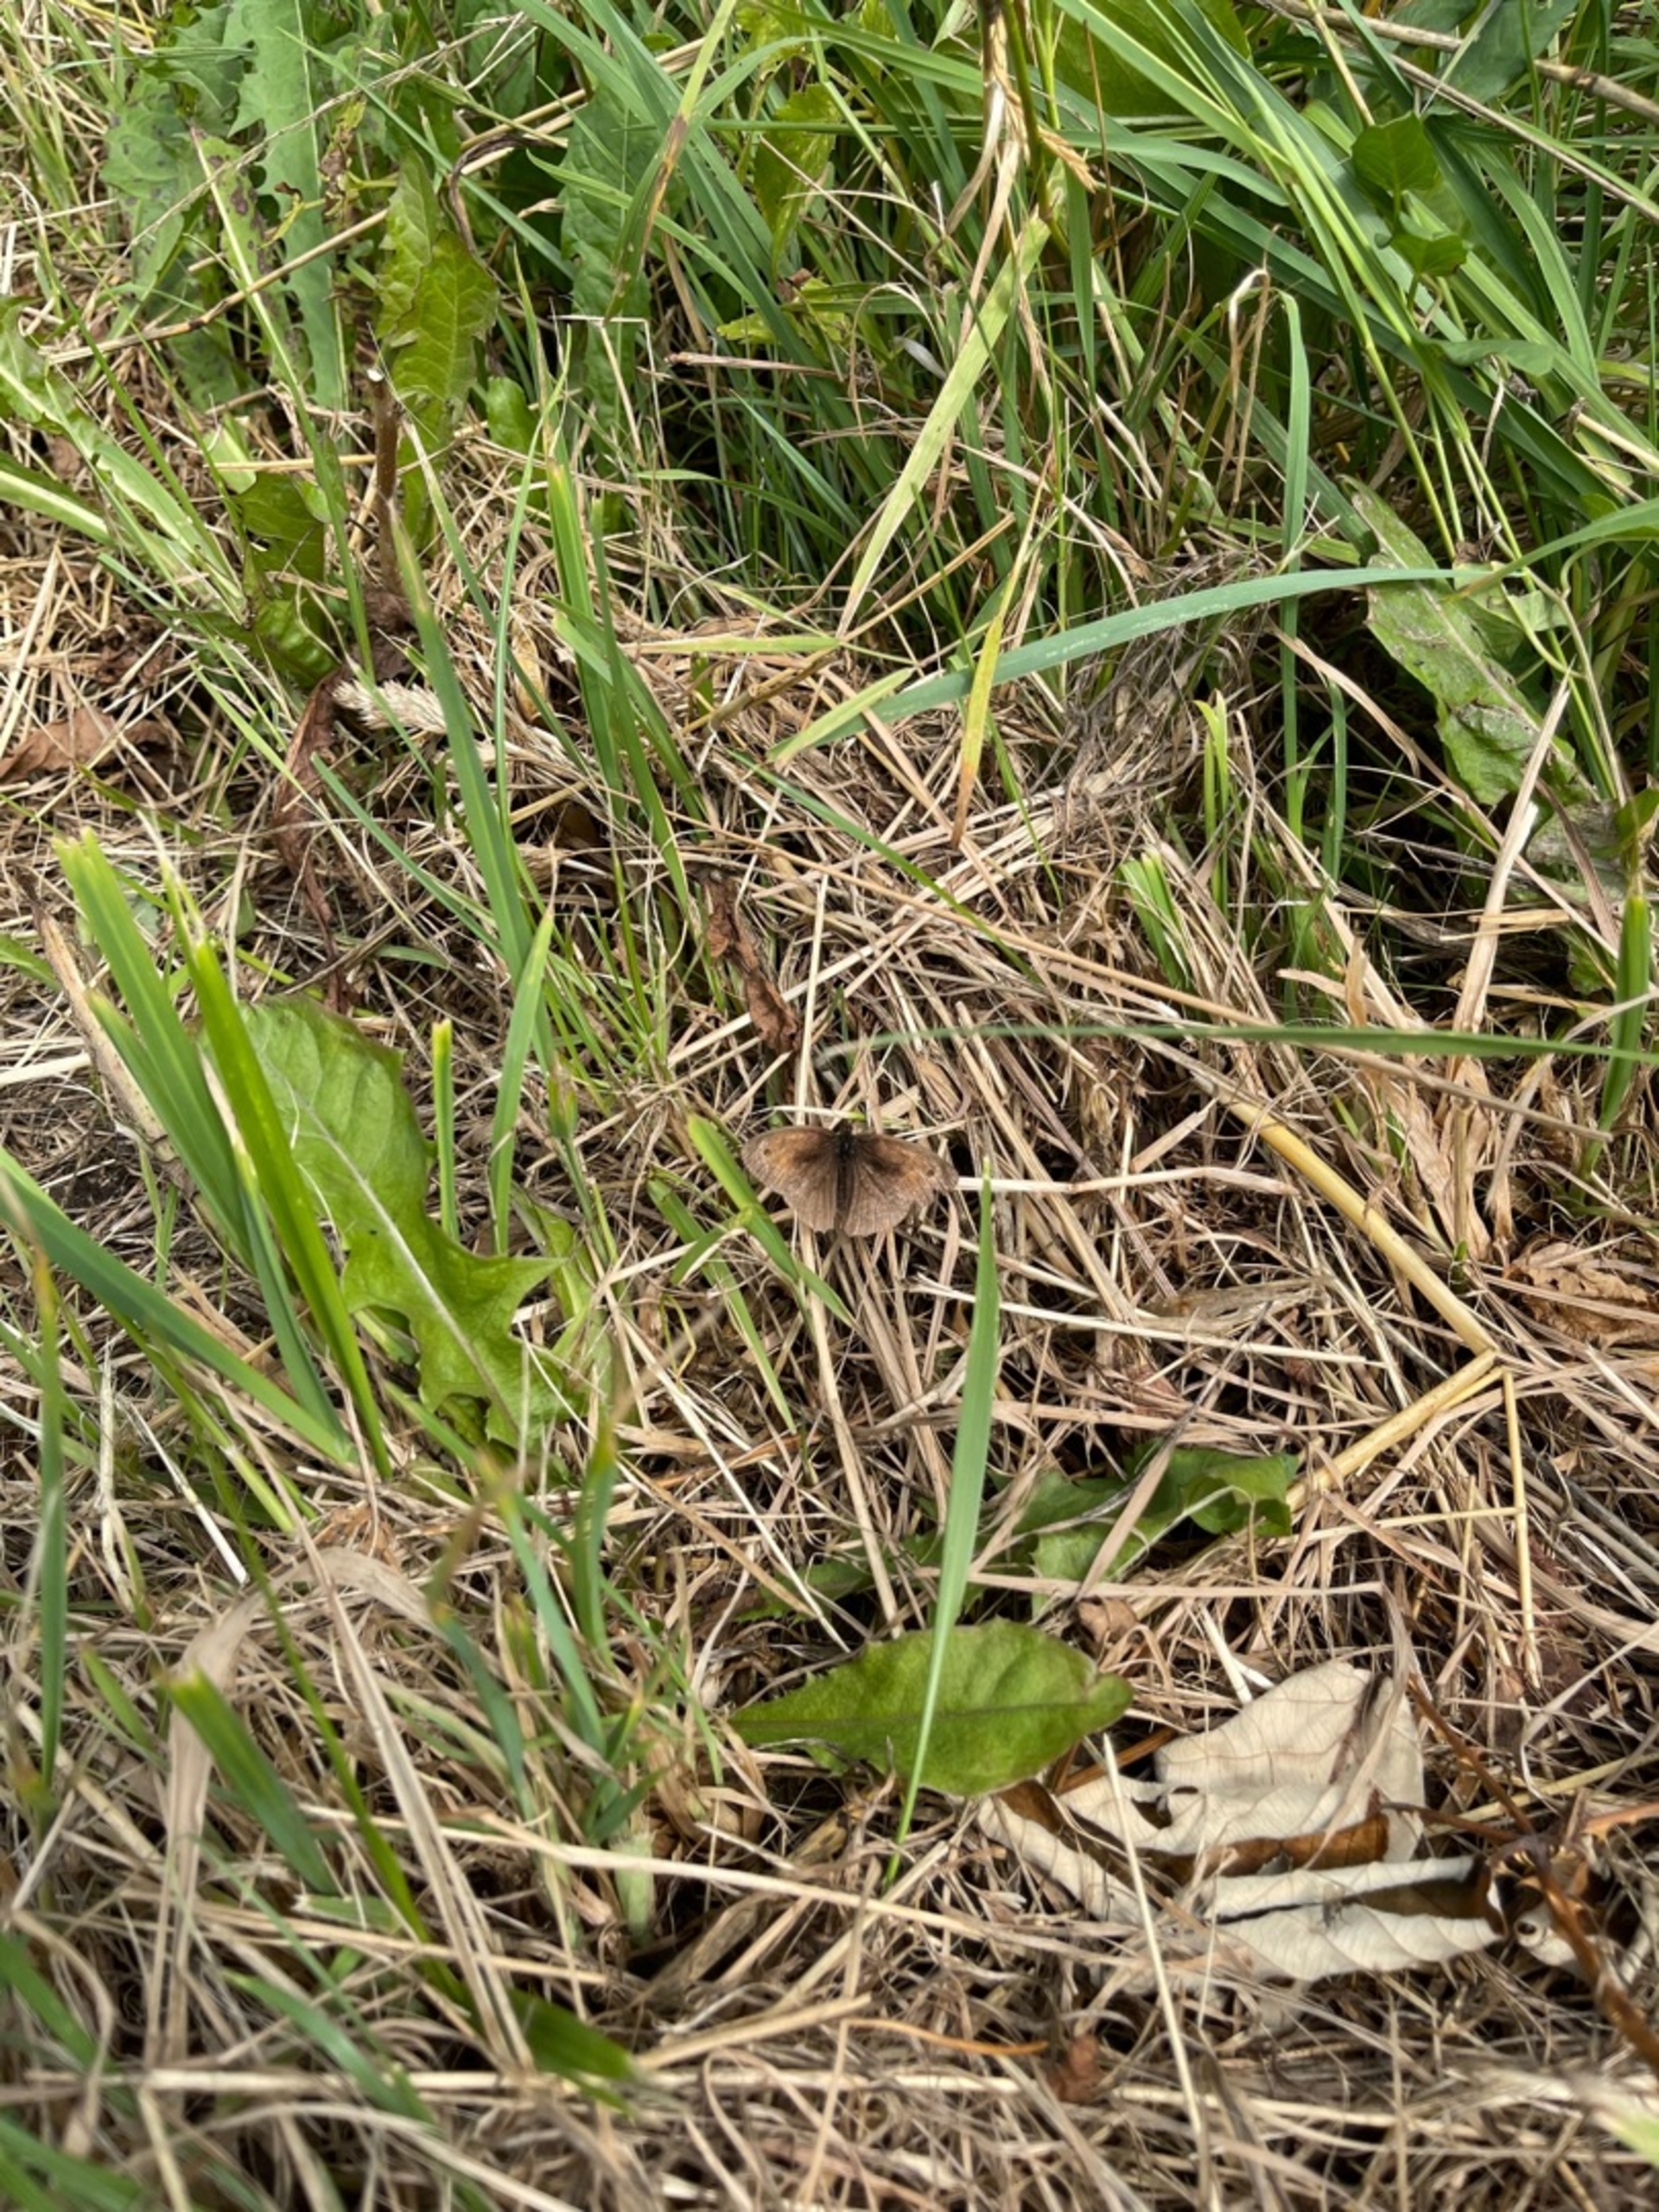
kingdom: Animalia
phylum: Arthropoda
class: Insecta
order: Lepidoptera
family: Nymphalidae
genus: Maniola
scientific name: Maniola jurtina
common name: Græsrandøje
